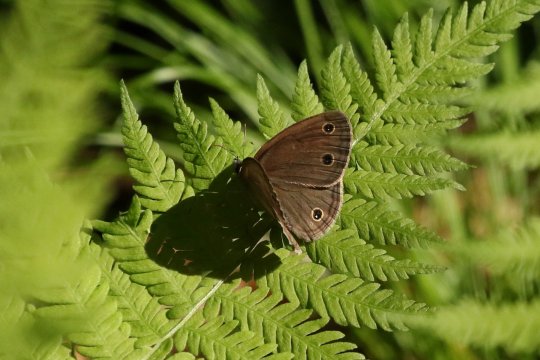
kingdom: Animalia
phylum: Arthropoda
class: Insecta
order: Lepidoptera
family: Nymphalidae
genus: Euptychia
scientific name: Euptychia cymela
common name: Little Wood Satyr
